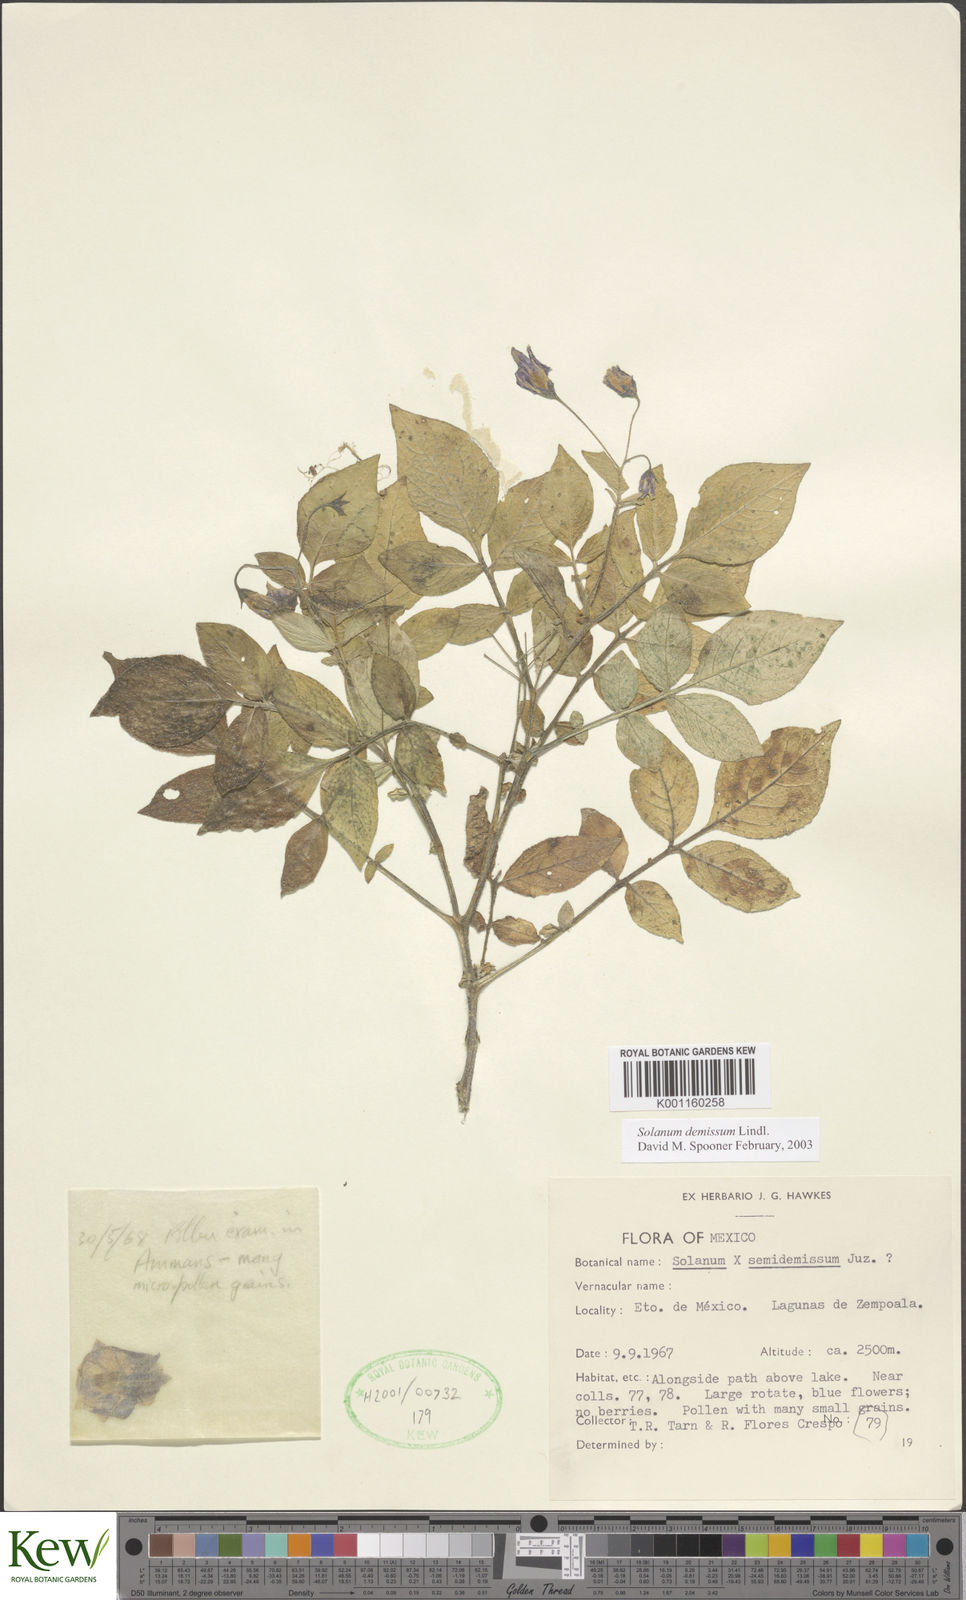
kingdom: Plantae
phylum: Tracheophyta
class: Magnoliopsida
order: Solanales
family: Solanaceae
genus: Solanum
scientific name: Solanum demissum
